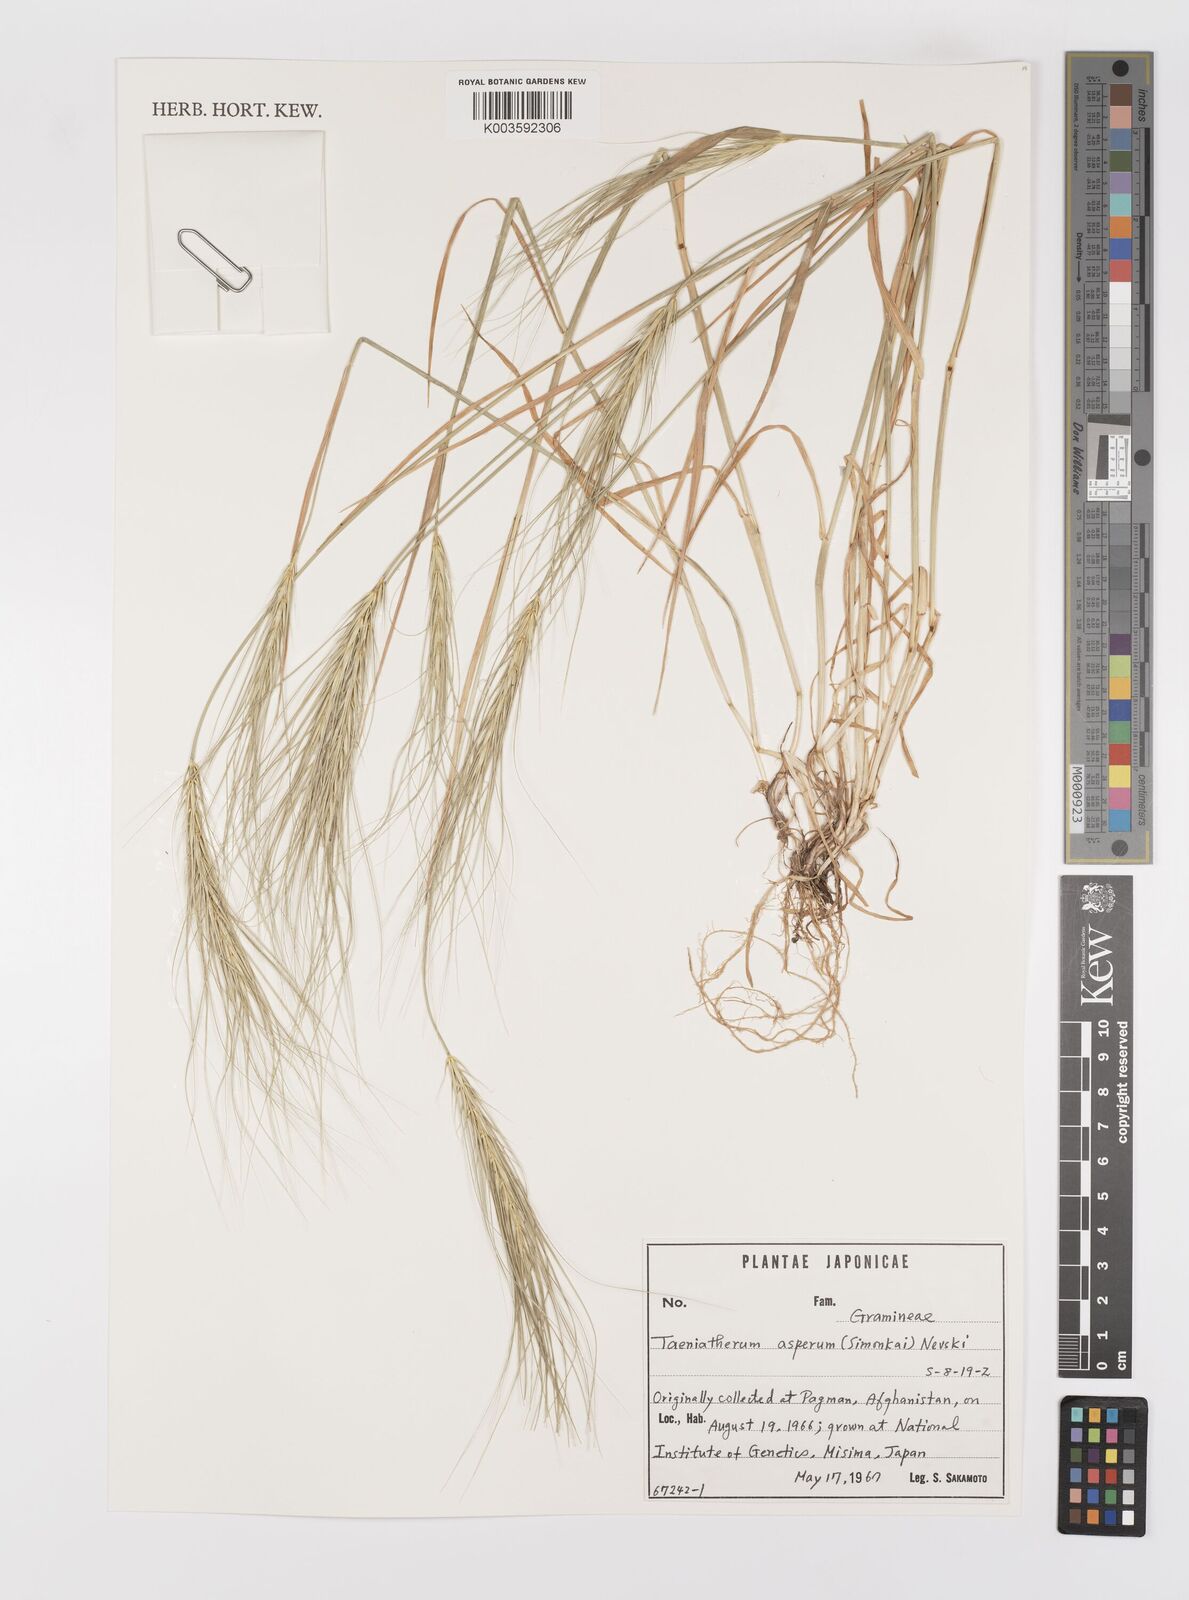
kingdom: Plantae
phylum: Tracheophyta
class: Liliopsida
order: Poales
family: Poaceae
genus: Taeniatherum
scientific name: Taeniatherum caput-medusae
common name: Medusahead
